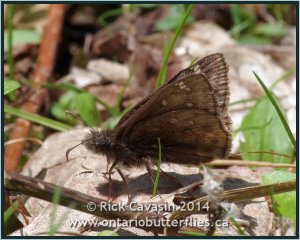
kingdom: Animalia
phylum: Arthropoda
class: Insecta
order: Lepidoptera
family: Hesperiidae
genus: Gesta
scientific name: Gesta
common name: Juvenal's Duskywing
